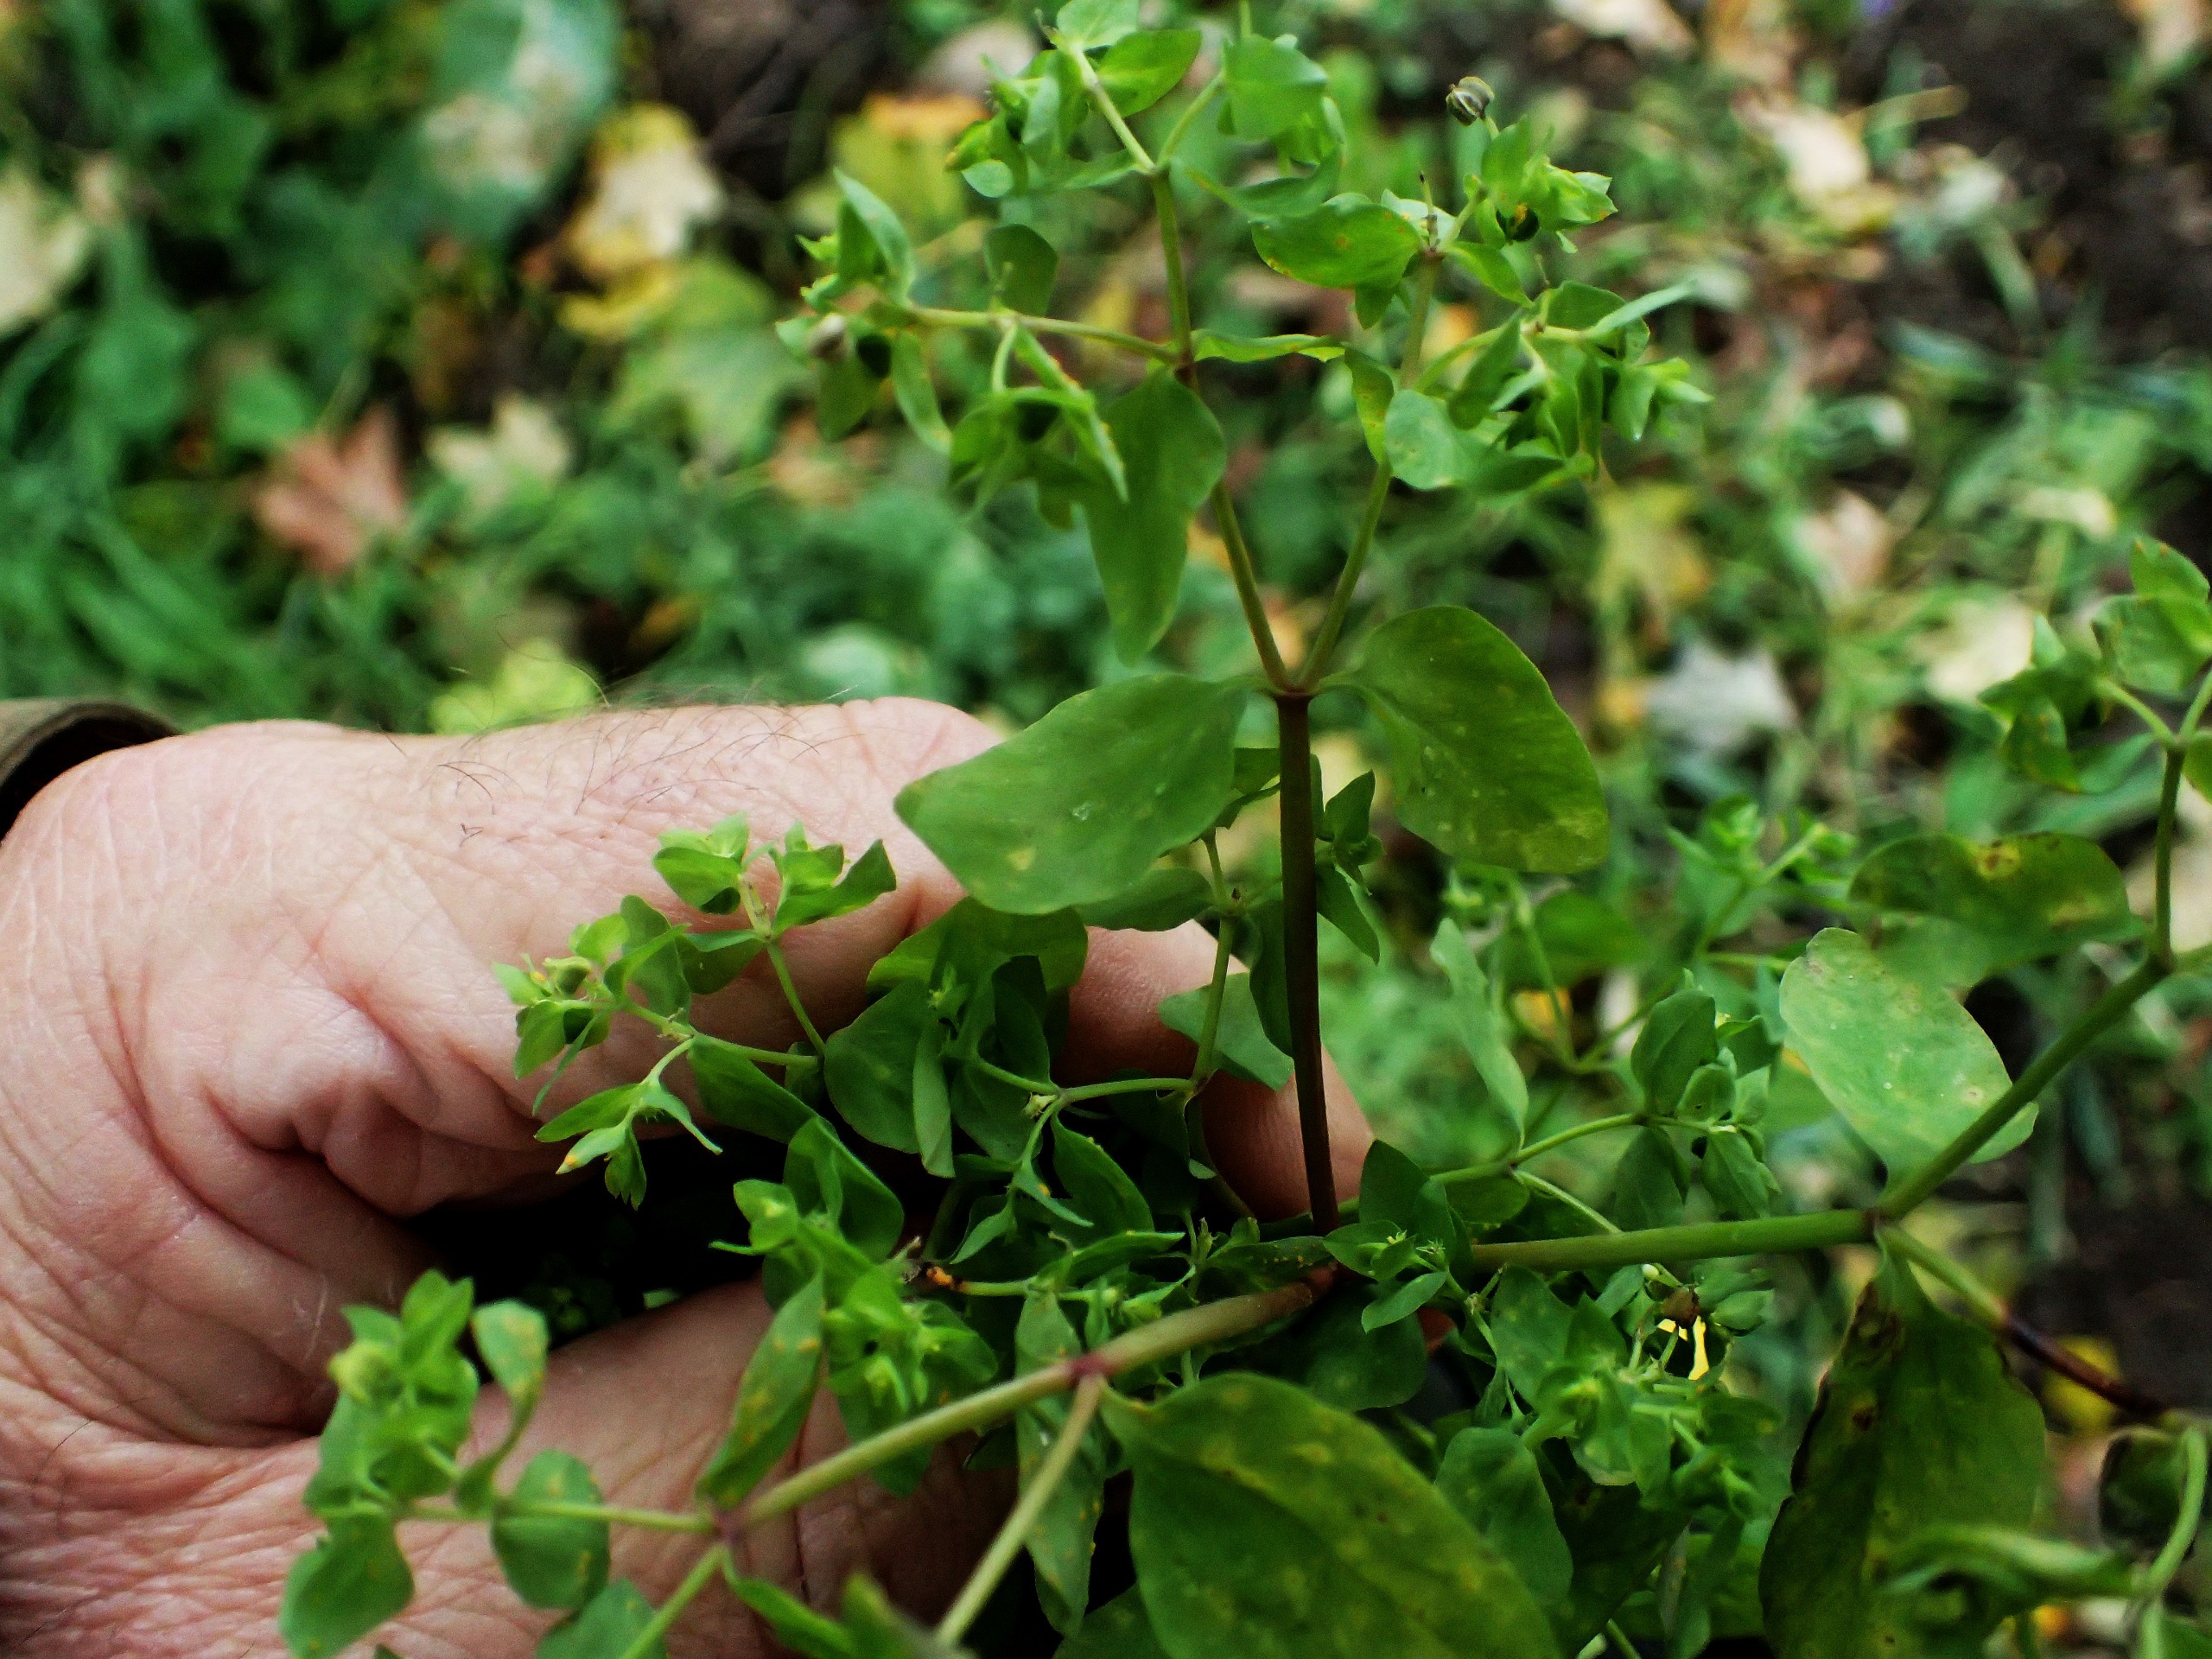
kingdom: Plantae
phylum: Tracheophyta
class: Magnoliopsida
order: Malpighiales
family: Euphorbiaceae
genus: Euphorbia
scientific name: Euphorbia peplus
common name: Gaffel-vortemælk
